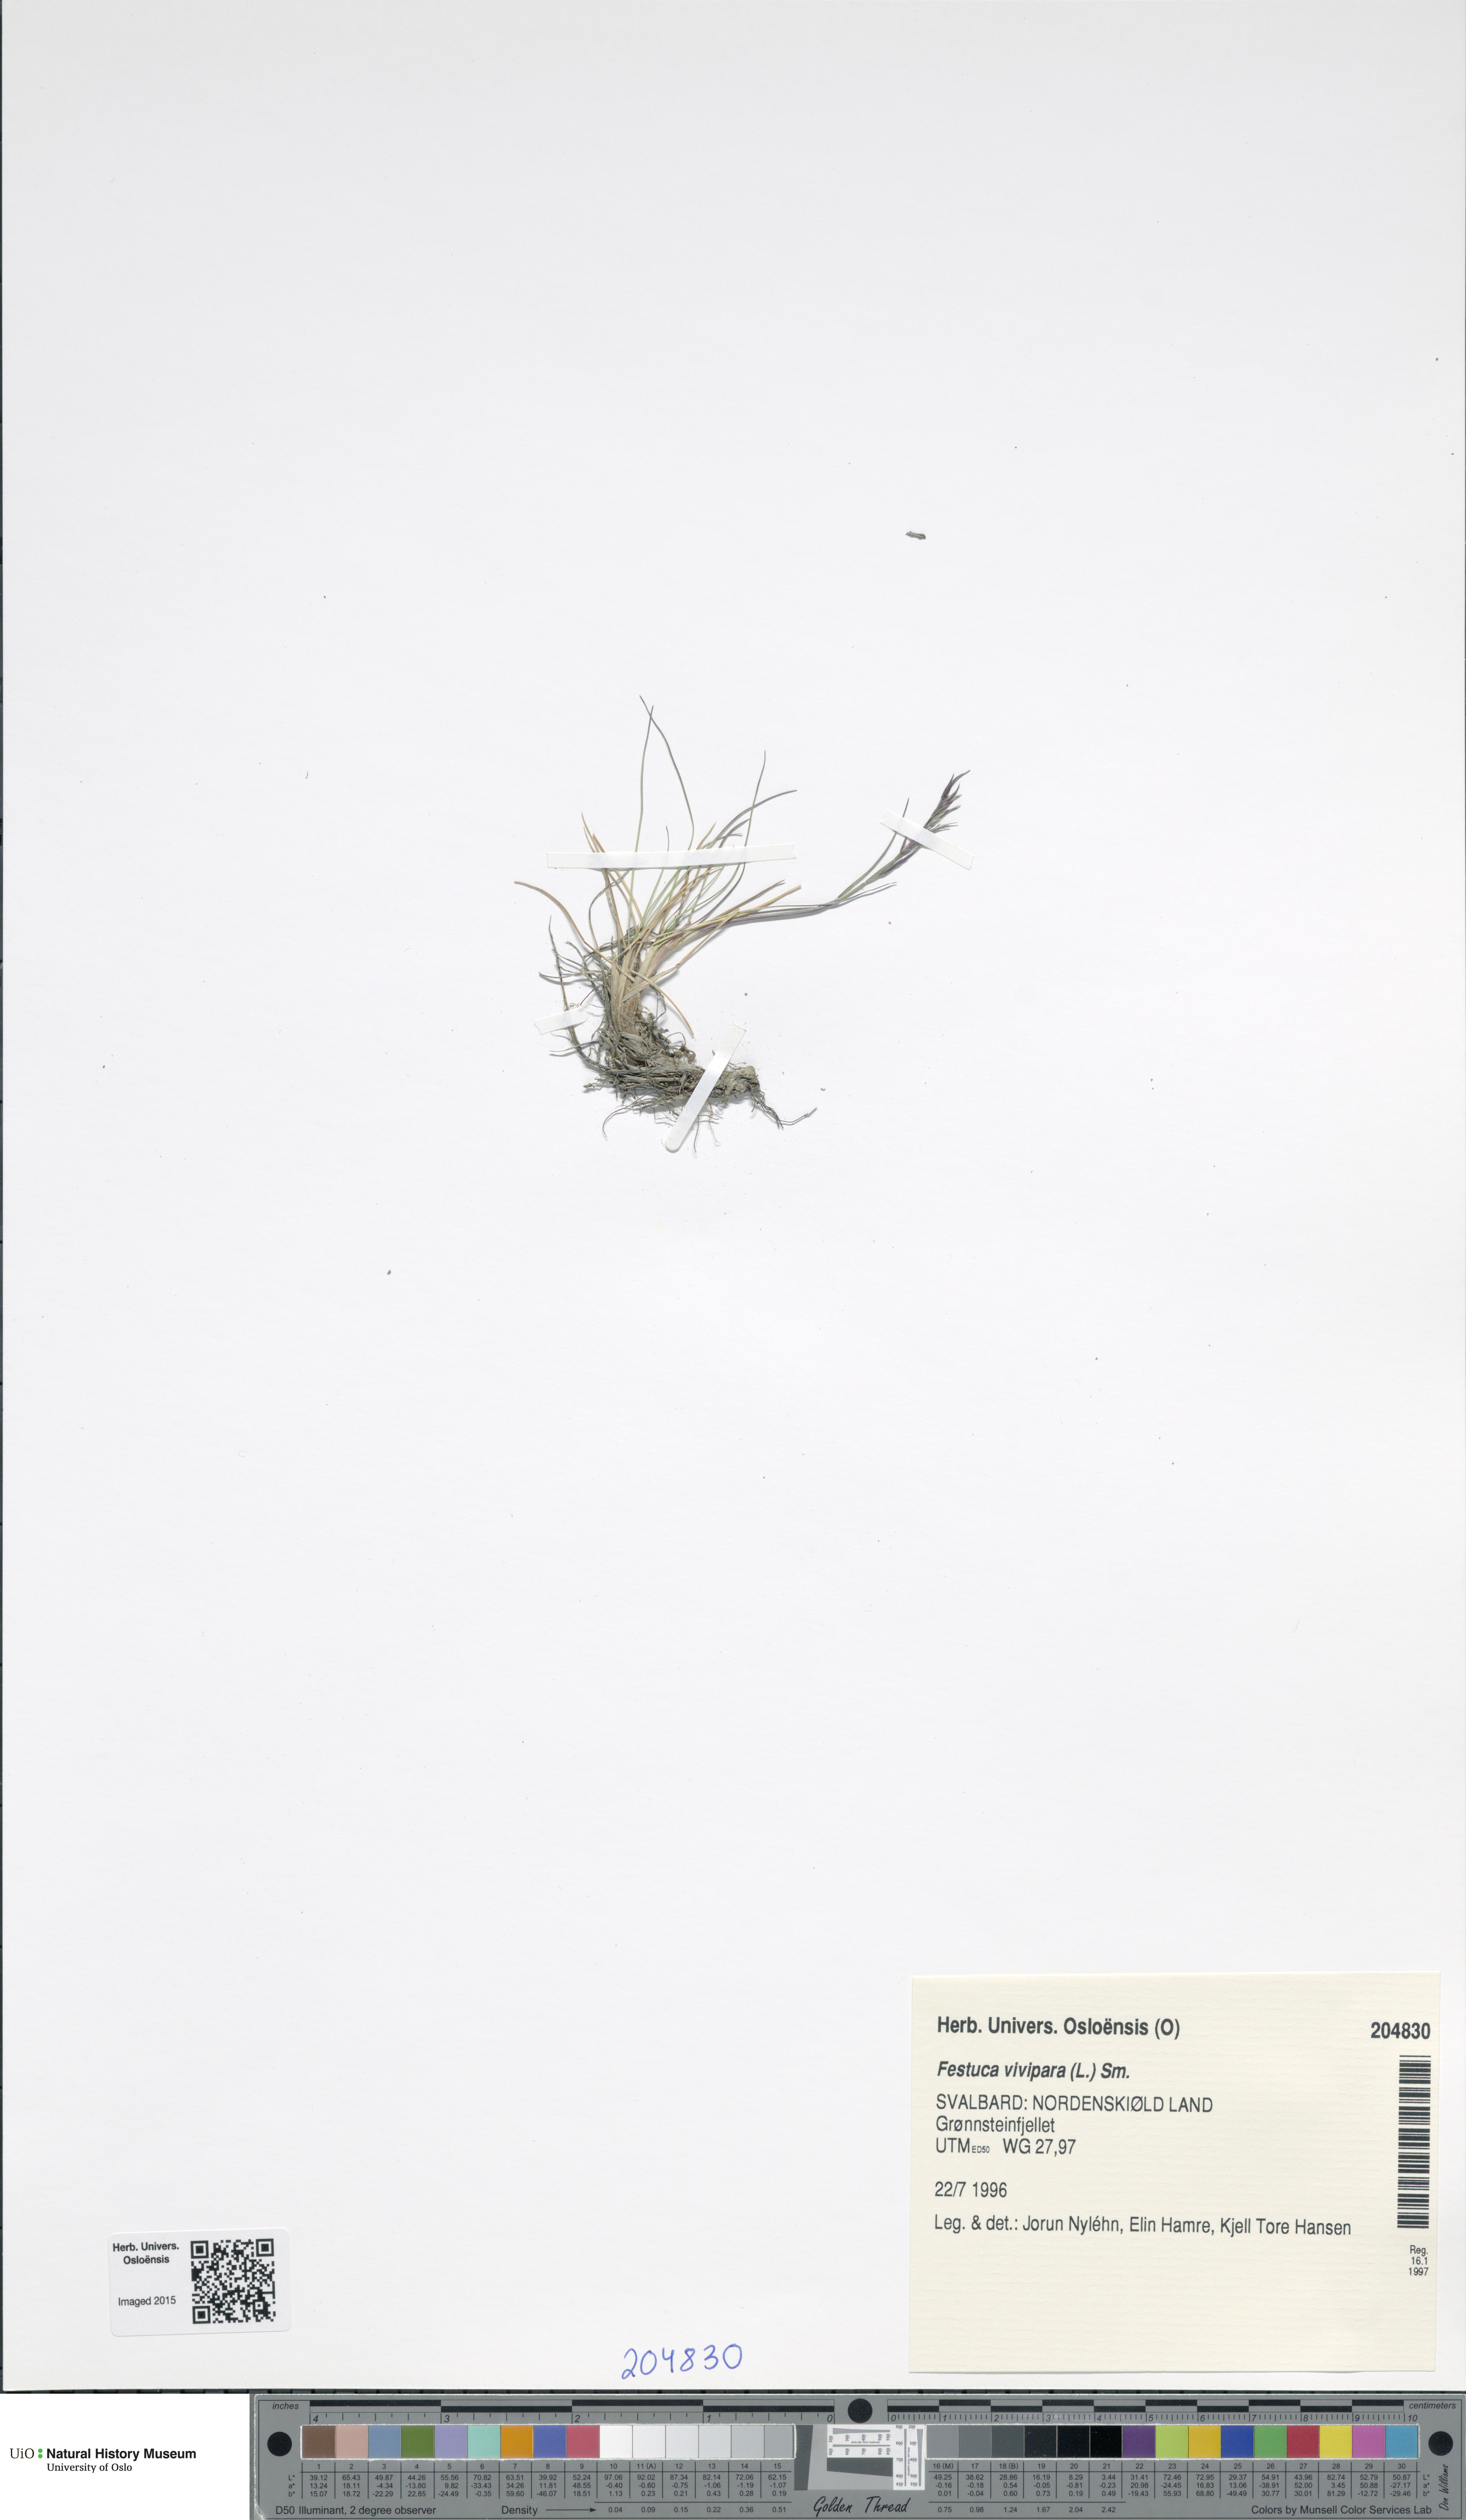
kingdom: Plantae
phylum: Tracheophyta
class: Liliopsida
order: Poales
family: Poaceae
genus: Festuca
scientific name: Festuca vivipara
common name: Viviparous sheep's-fescue
